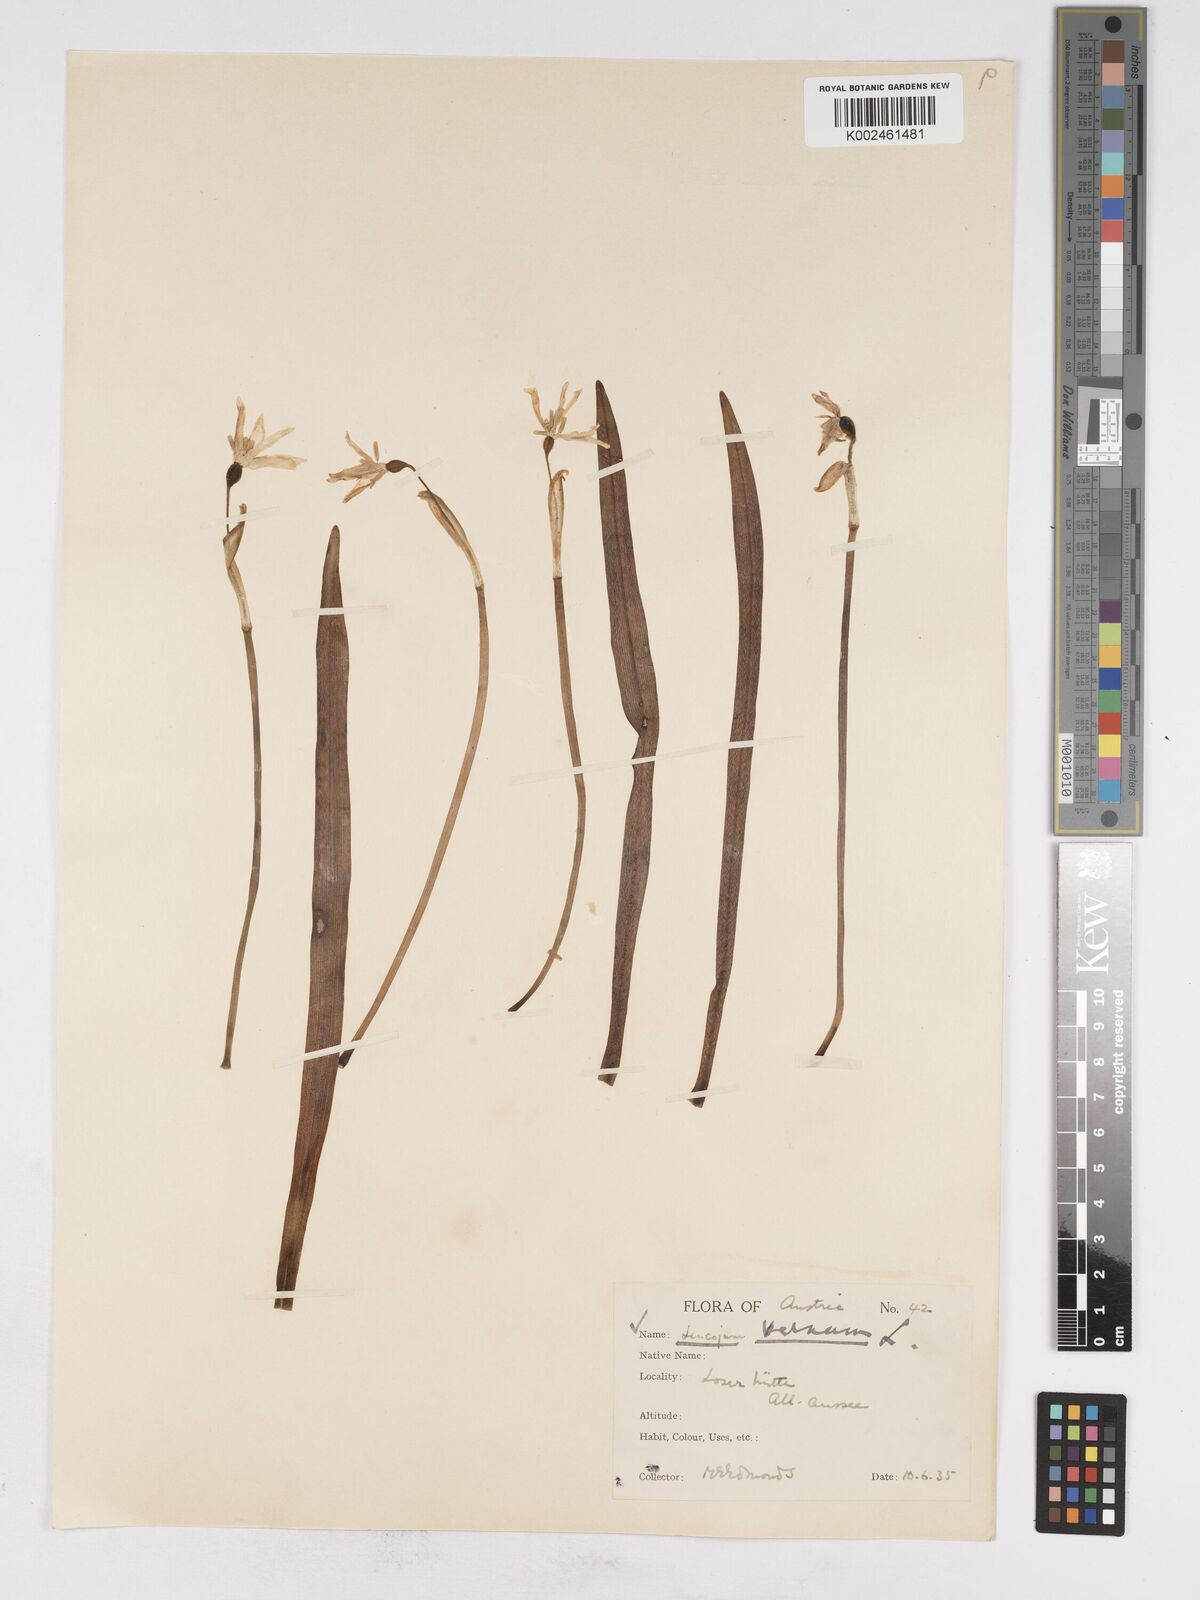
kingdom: Plantae
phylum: Tracheophyta
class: Liliopsida
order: Asparagales
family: Amaryllidaceae
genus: Leucojum
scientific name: Leucojum vernum
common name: Spring snowflake
